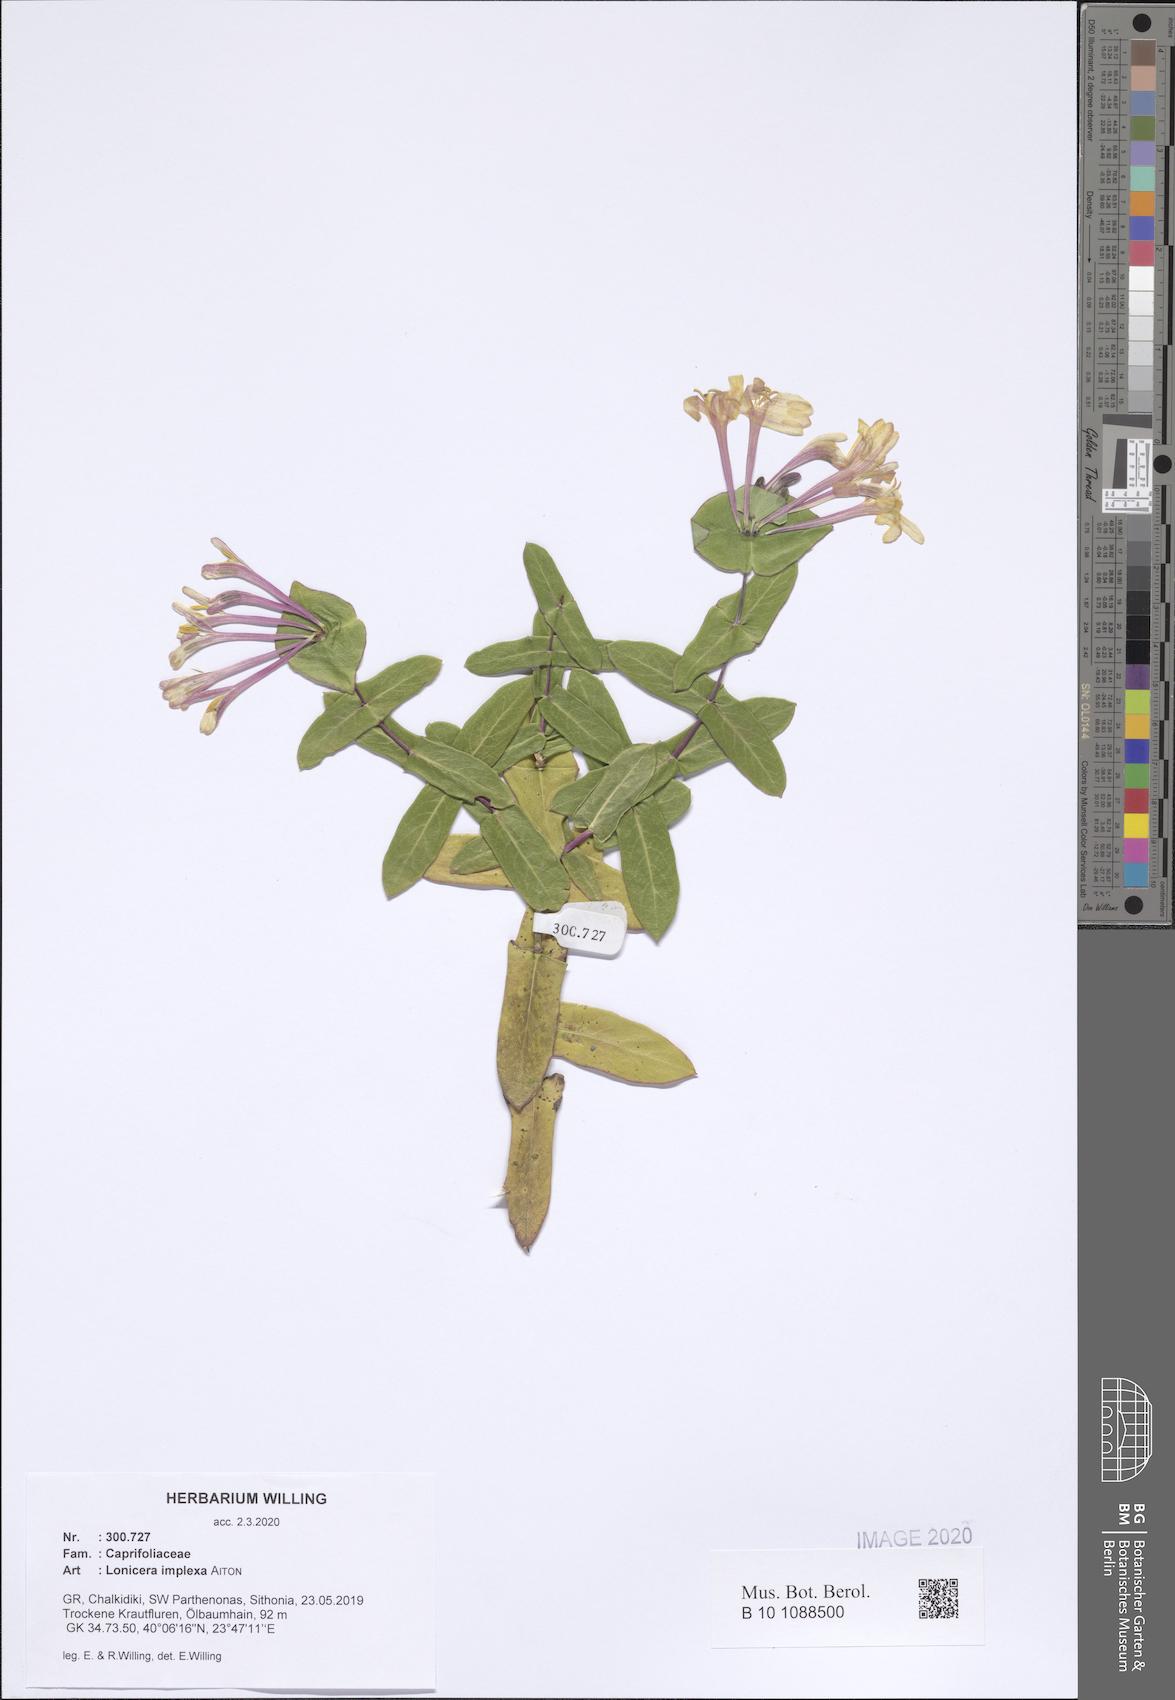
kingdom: Plantae
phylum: Tracheophyta
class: Magnoliopsida
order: Dipsacales
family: Caprifoliaceae
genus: Lonicera
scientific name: Lonicera implexa
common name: Minorca honeysuckle
